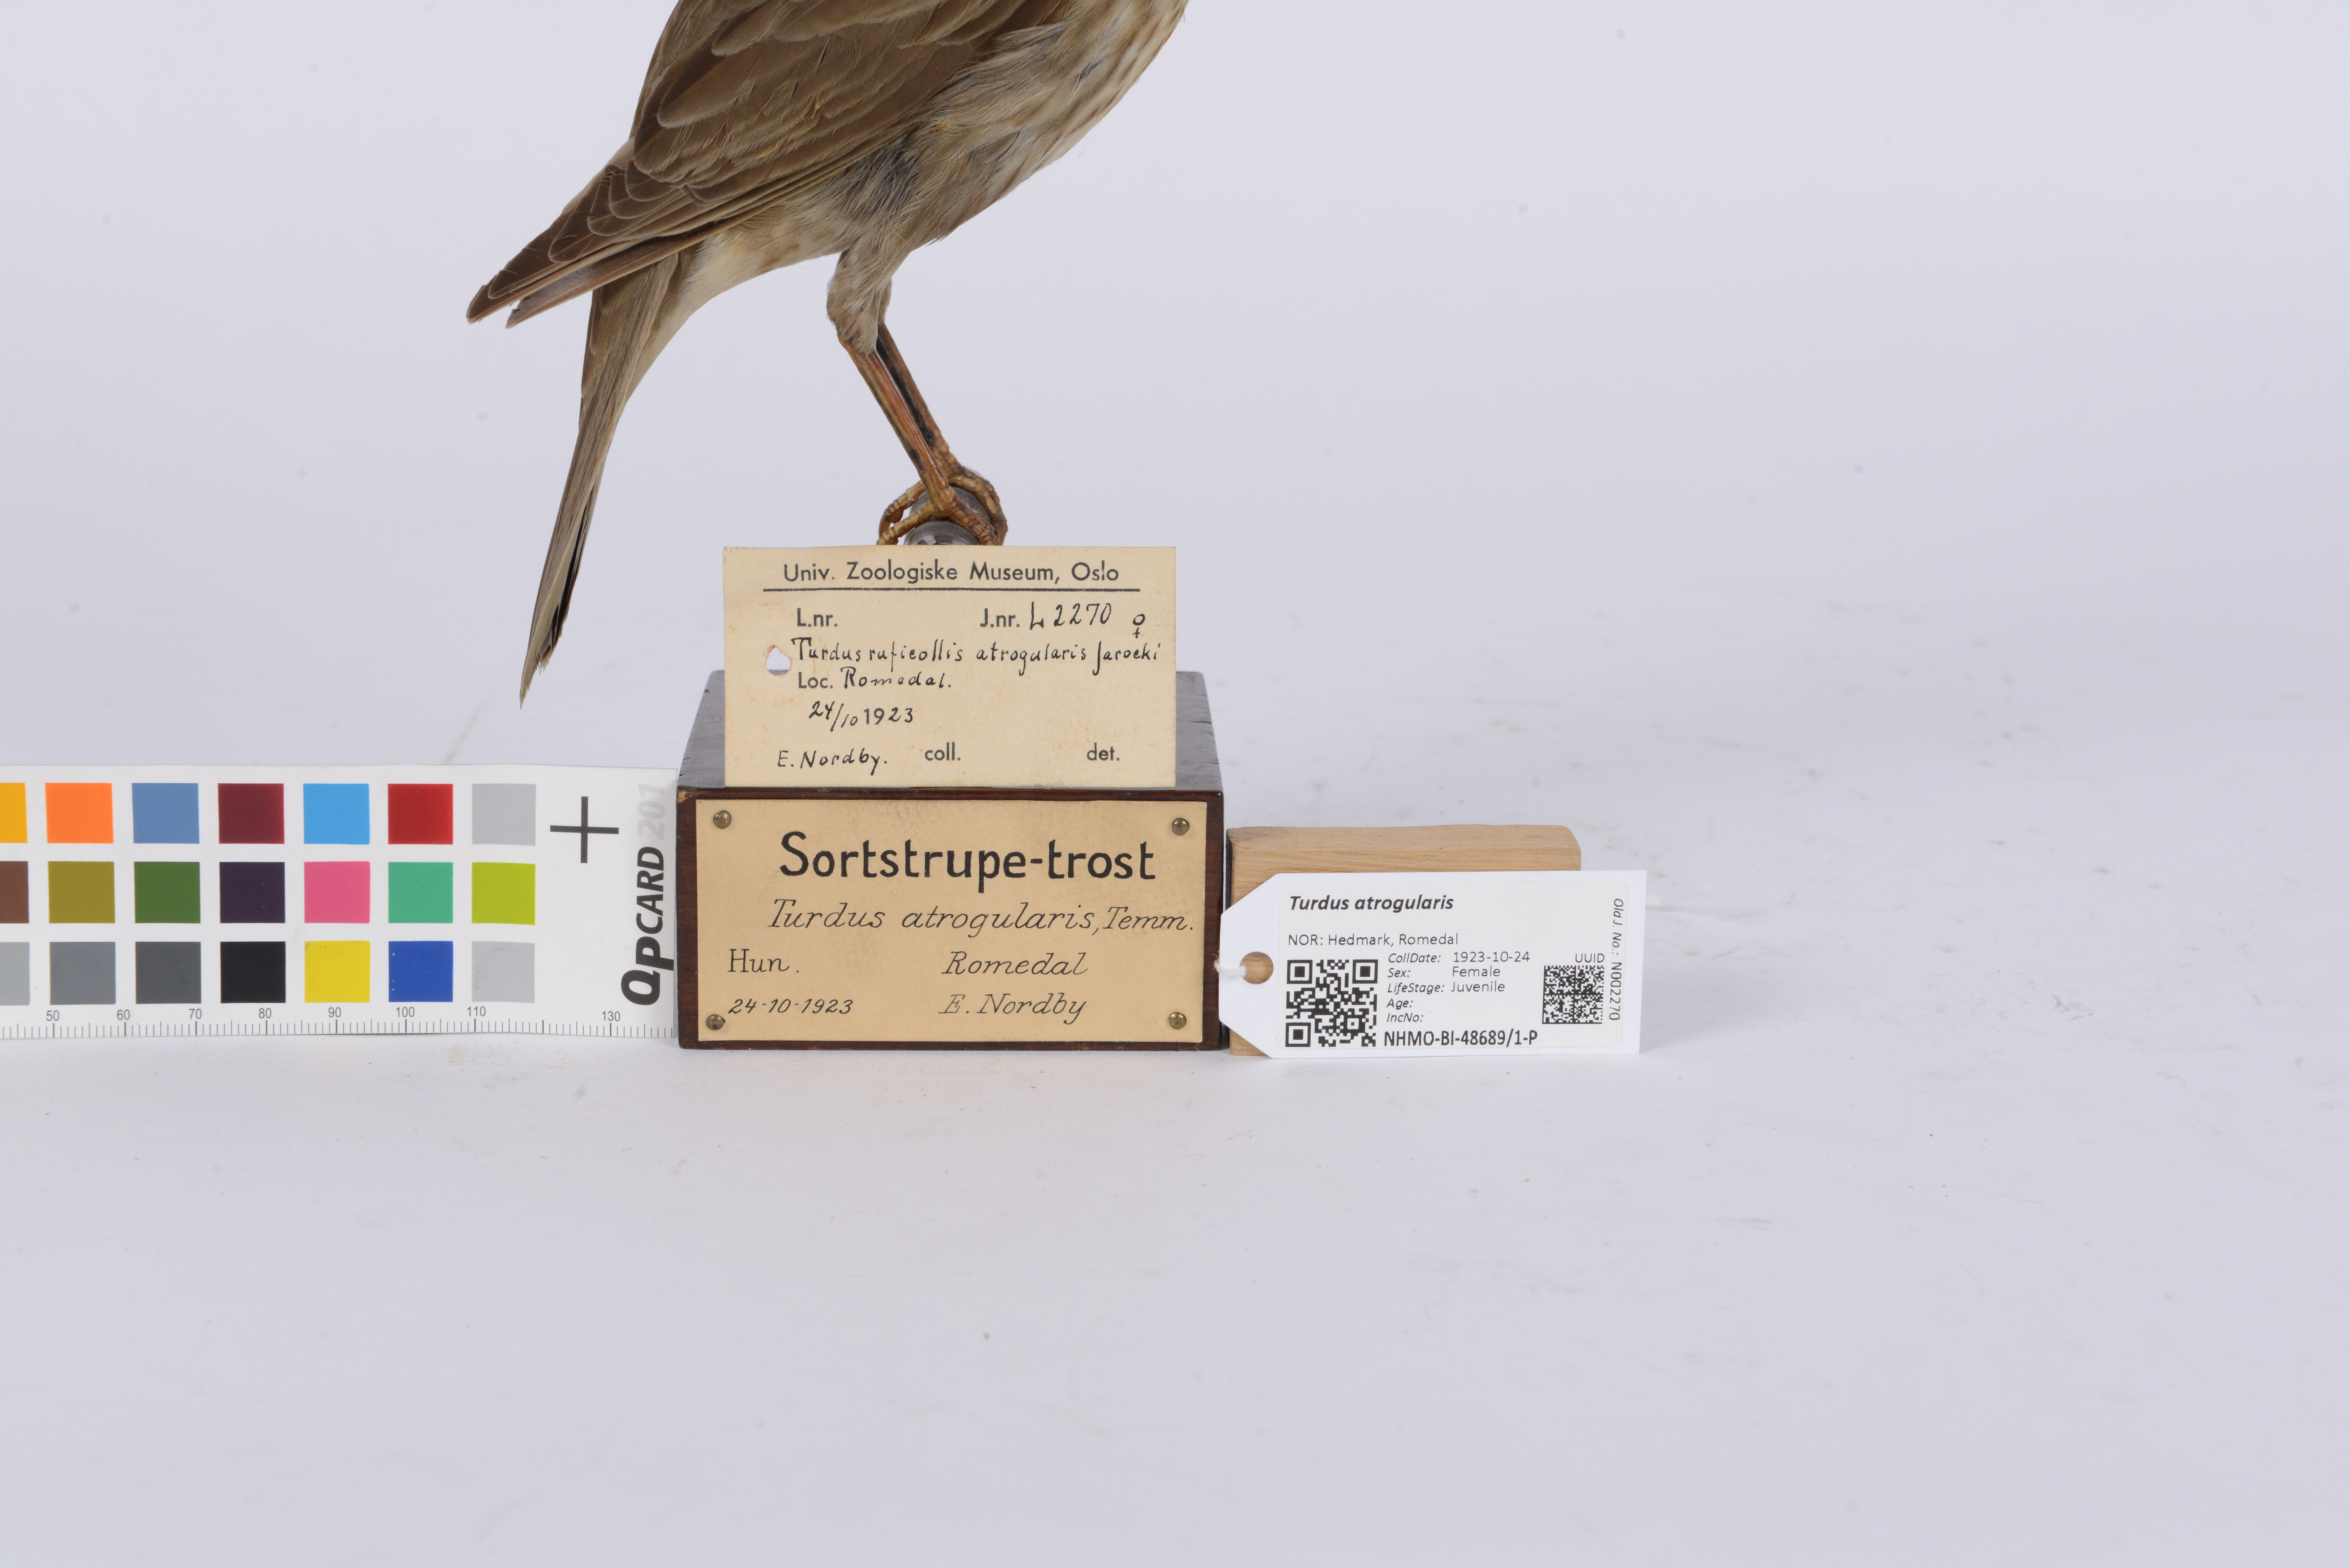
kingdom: Animalia
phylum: Chordata
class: Aves
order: Passeriformes
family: Turdidae
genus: Turdus
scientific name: Turdus atrogularis
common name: Black-throated thrush
